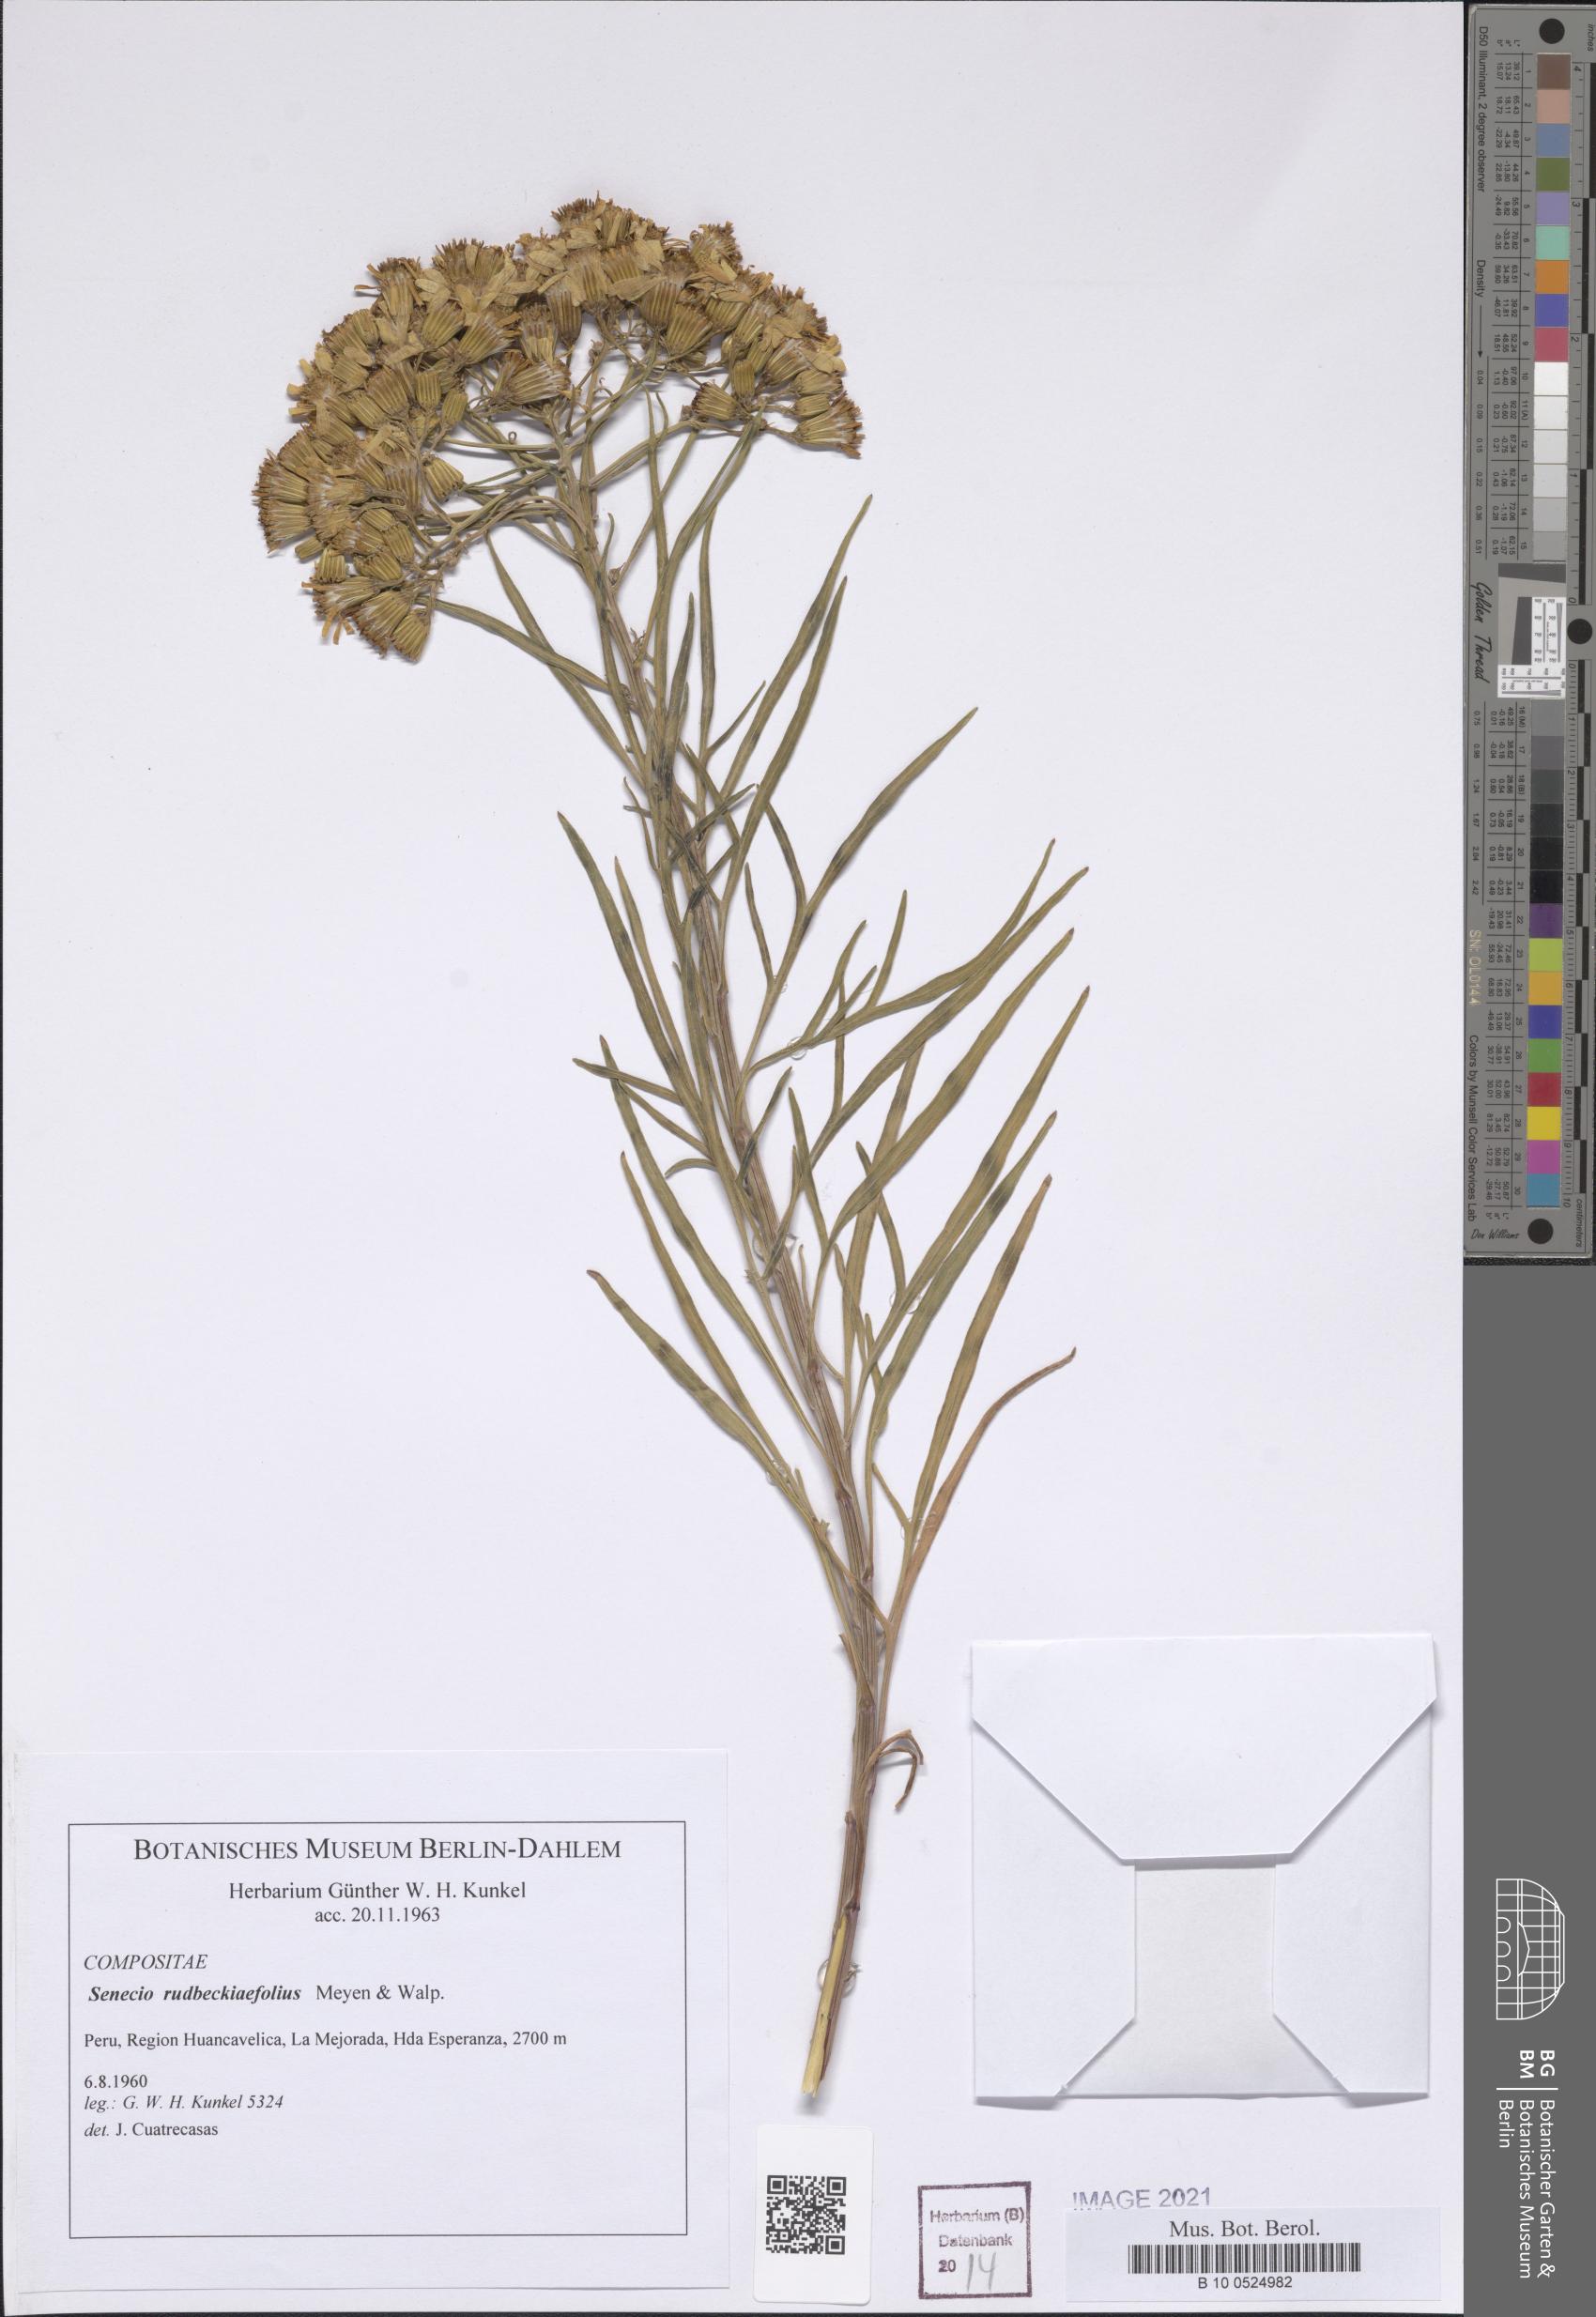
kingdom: Plantae
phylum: Tracheophyta
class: Magnoliopsida
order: Asterales
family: Asteraceae
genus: Senecio
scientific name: Senecio rudbeckiaefolius
